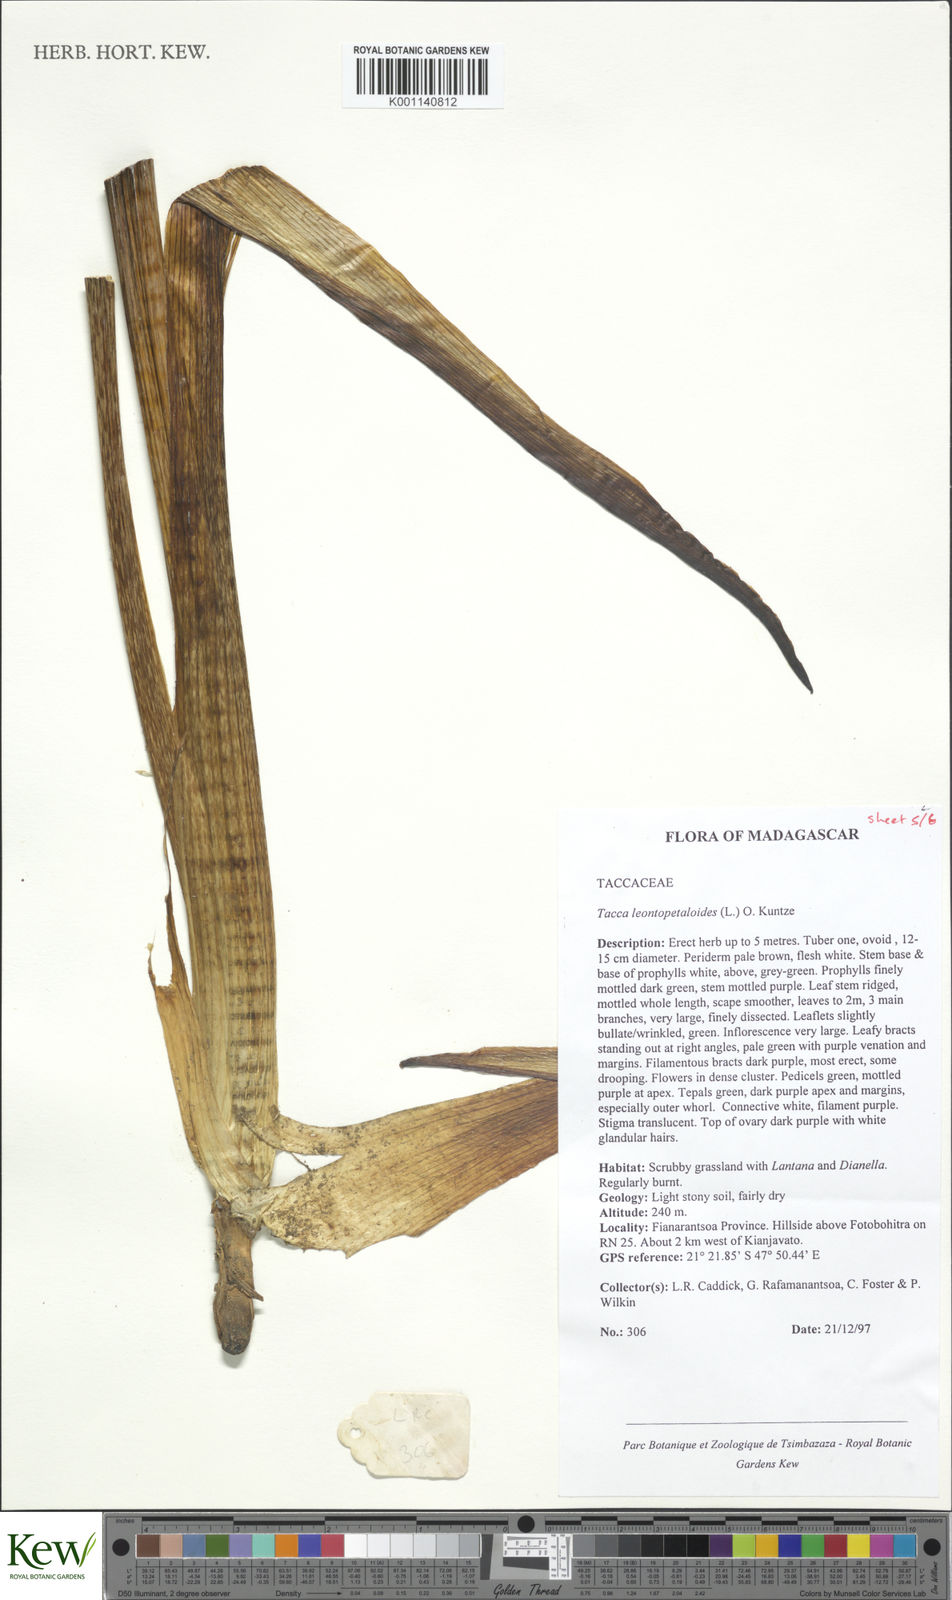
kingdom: Plantae
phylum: Tracheophyta
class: Liliopsida
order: Dioscoreales
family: Dioscoreaceae
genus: Tacca
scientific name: Tacca leontopetaloides
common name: Arrowroot
